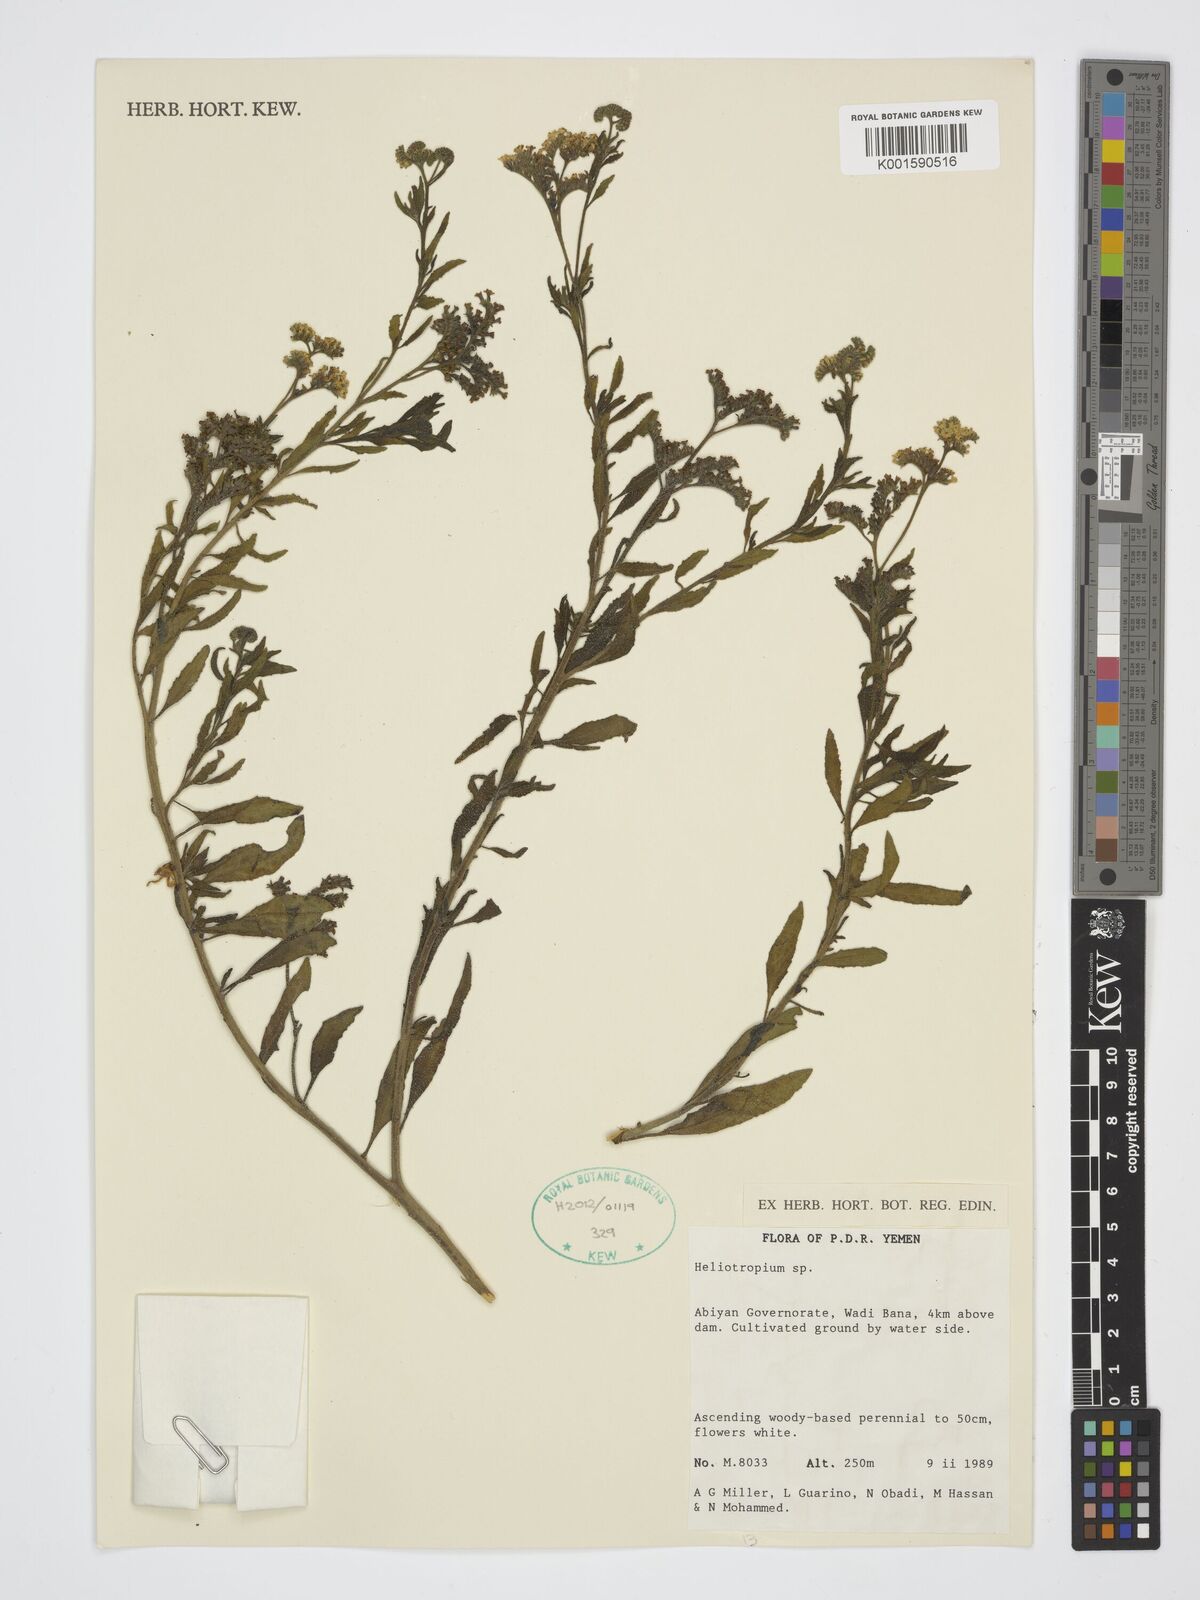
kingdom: Plantae
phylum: Tracheophyta
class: Magnoliopsida
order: Boraginales
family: Heliotropiaceae
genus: Heliotropium
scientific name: Heliotropium
